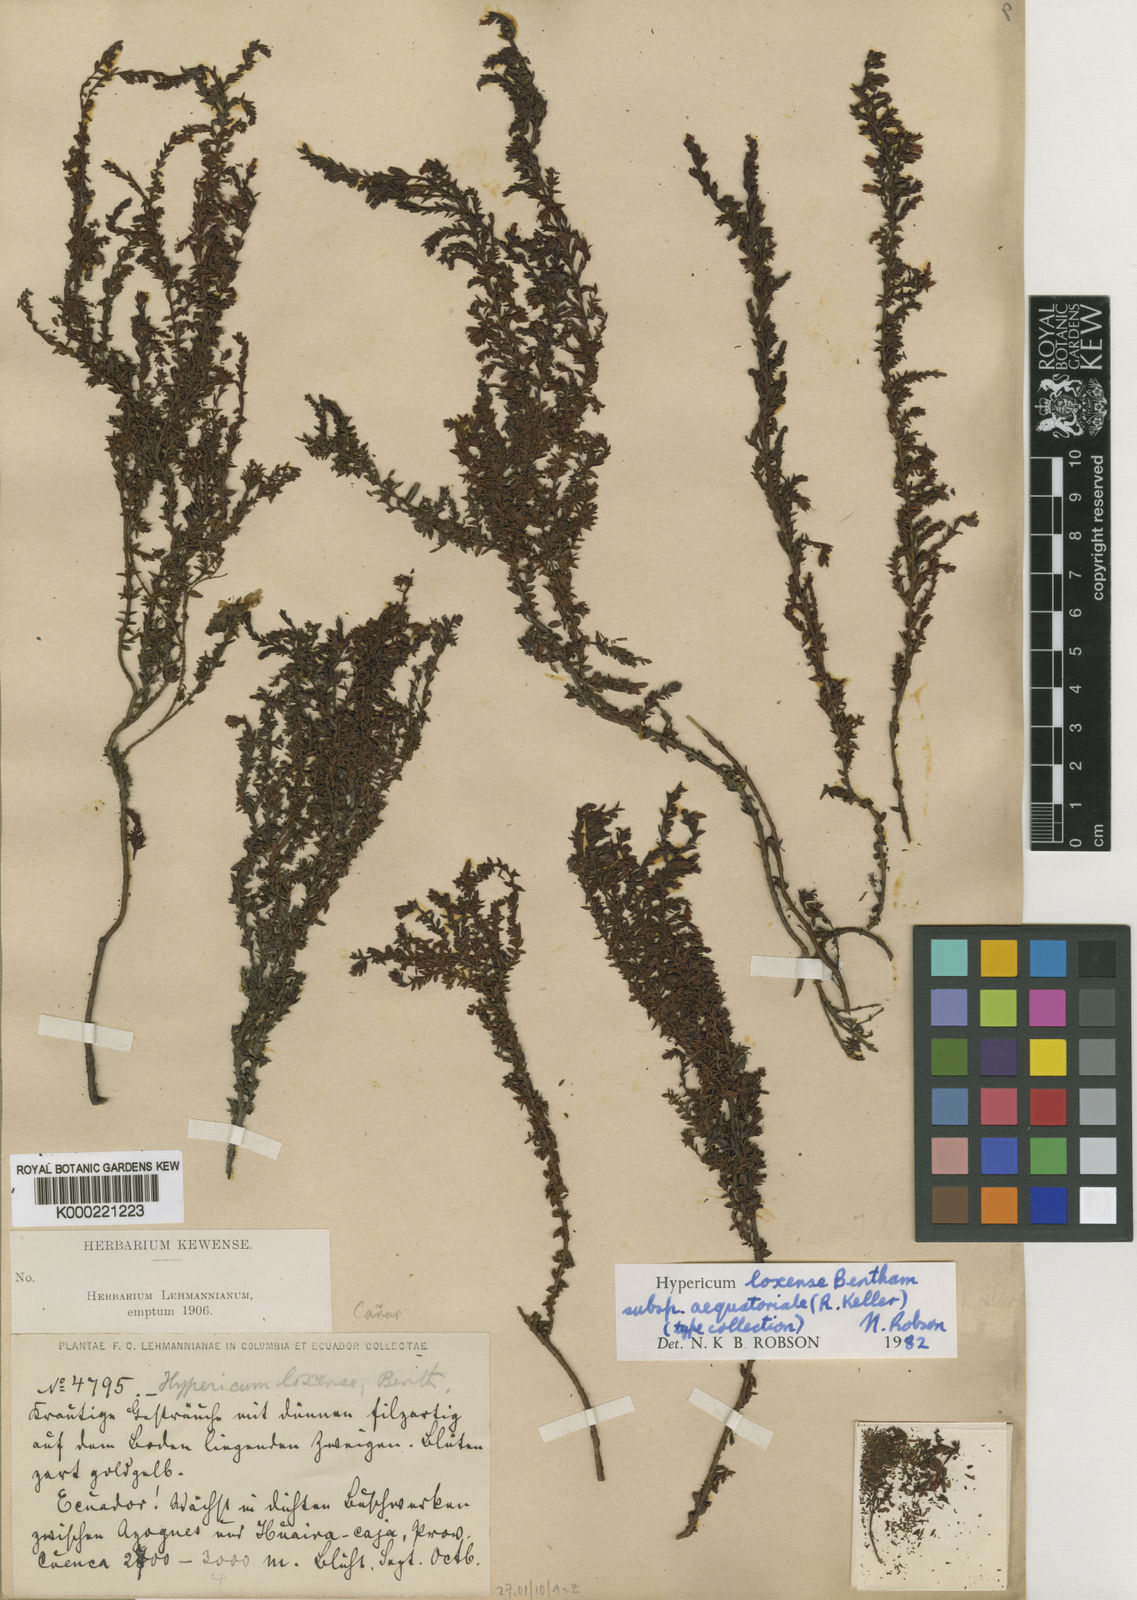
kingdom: Plantae
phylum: Tracheophyta
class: Magnoliopsida
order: Malpighiales
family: Hypericaceae
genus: Hypericum
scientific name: Hypericum loxense
